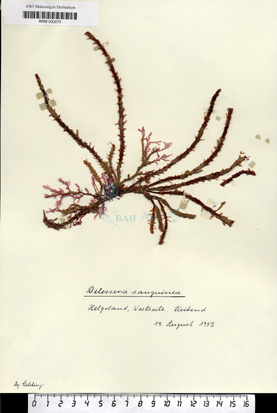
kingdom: Plantae
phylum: Rhodophyta
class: Florideophyceae
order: Ceramiales
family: Delesseriaceae
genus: Delesseria
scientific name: Delesseria sanguinea
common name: Sea beech
